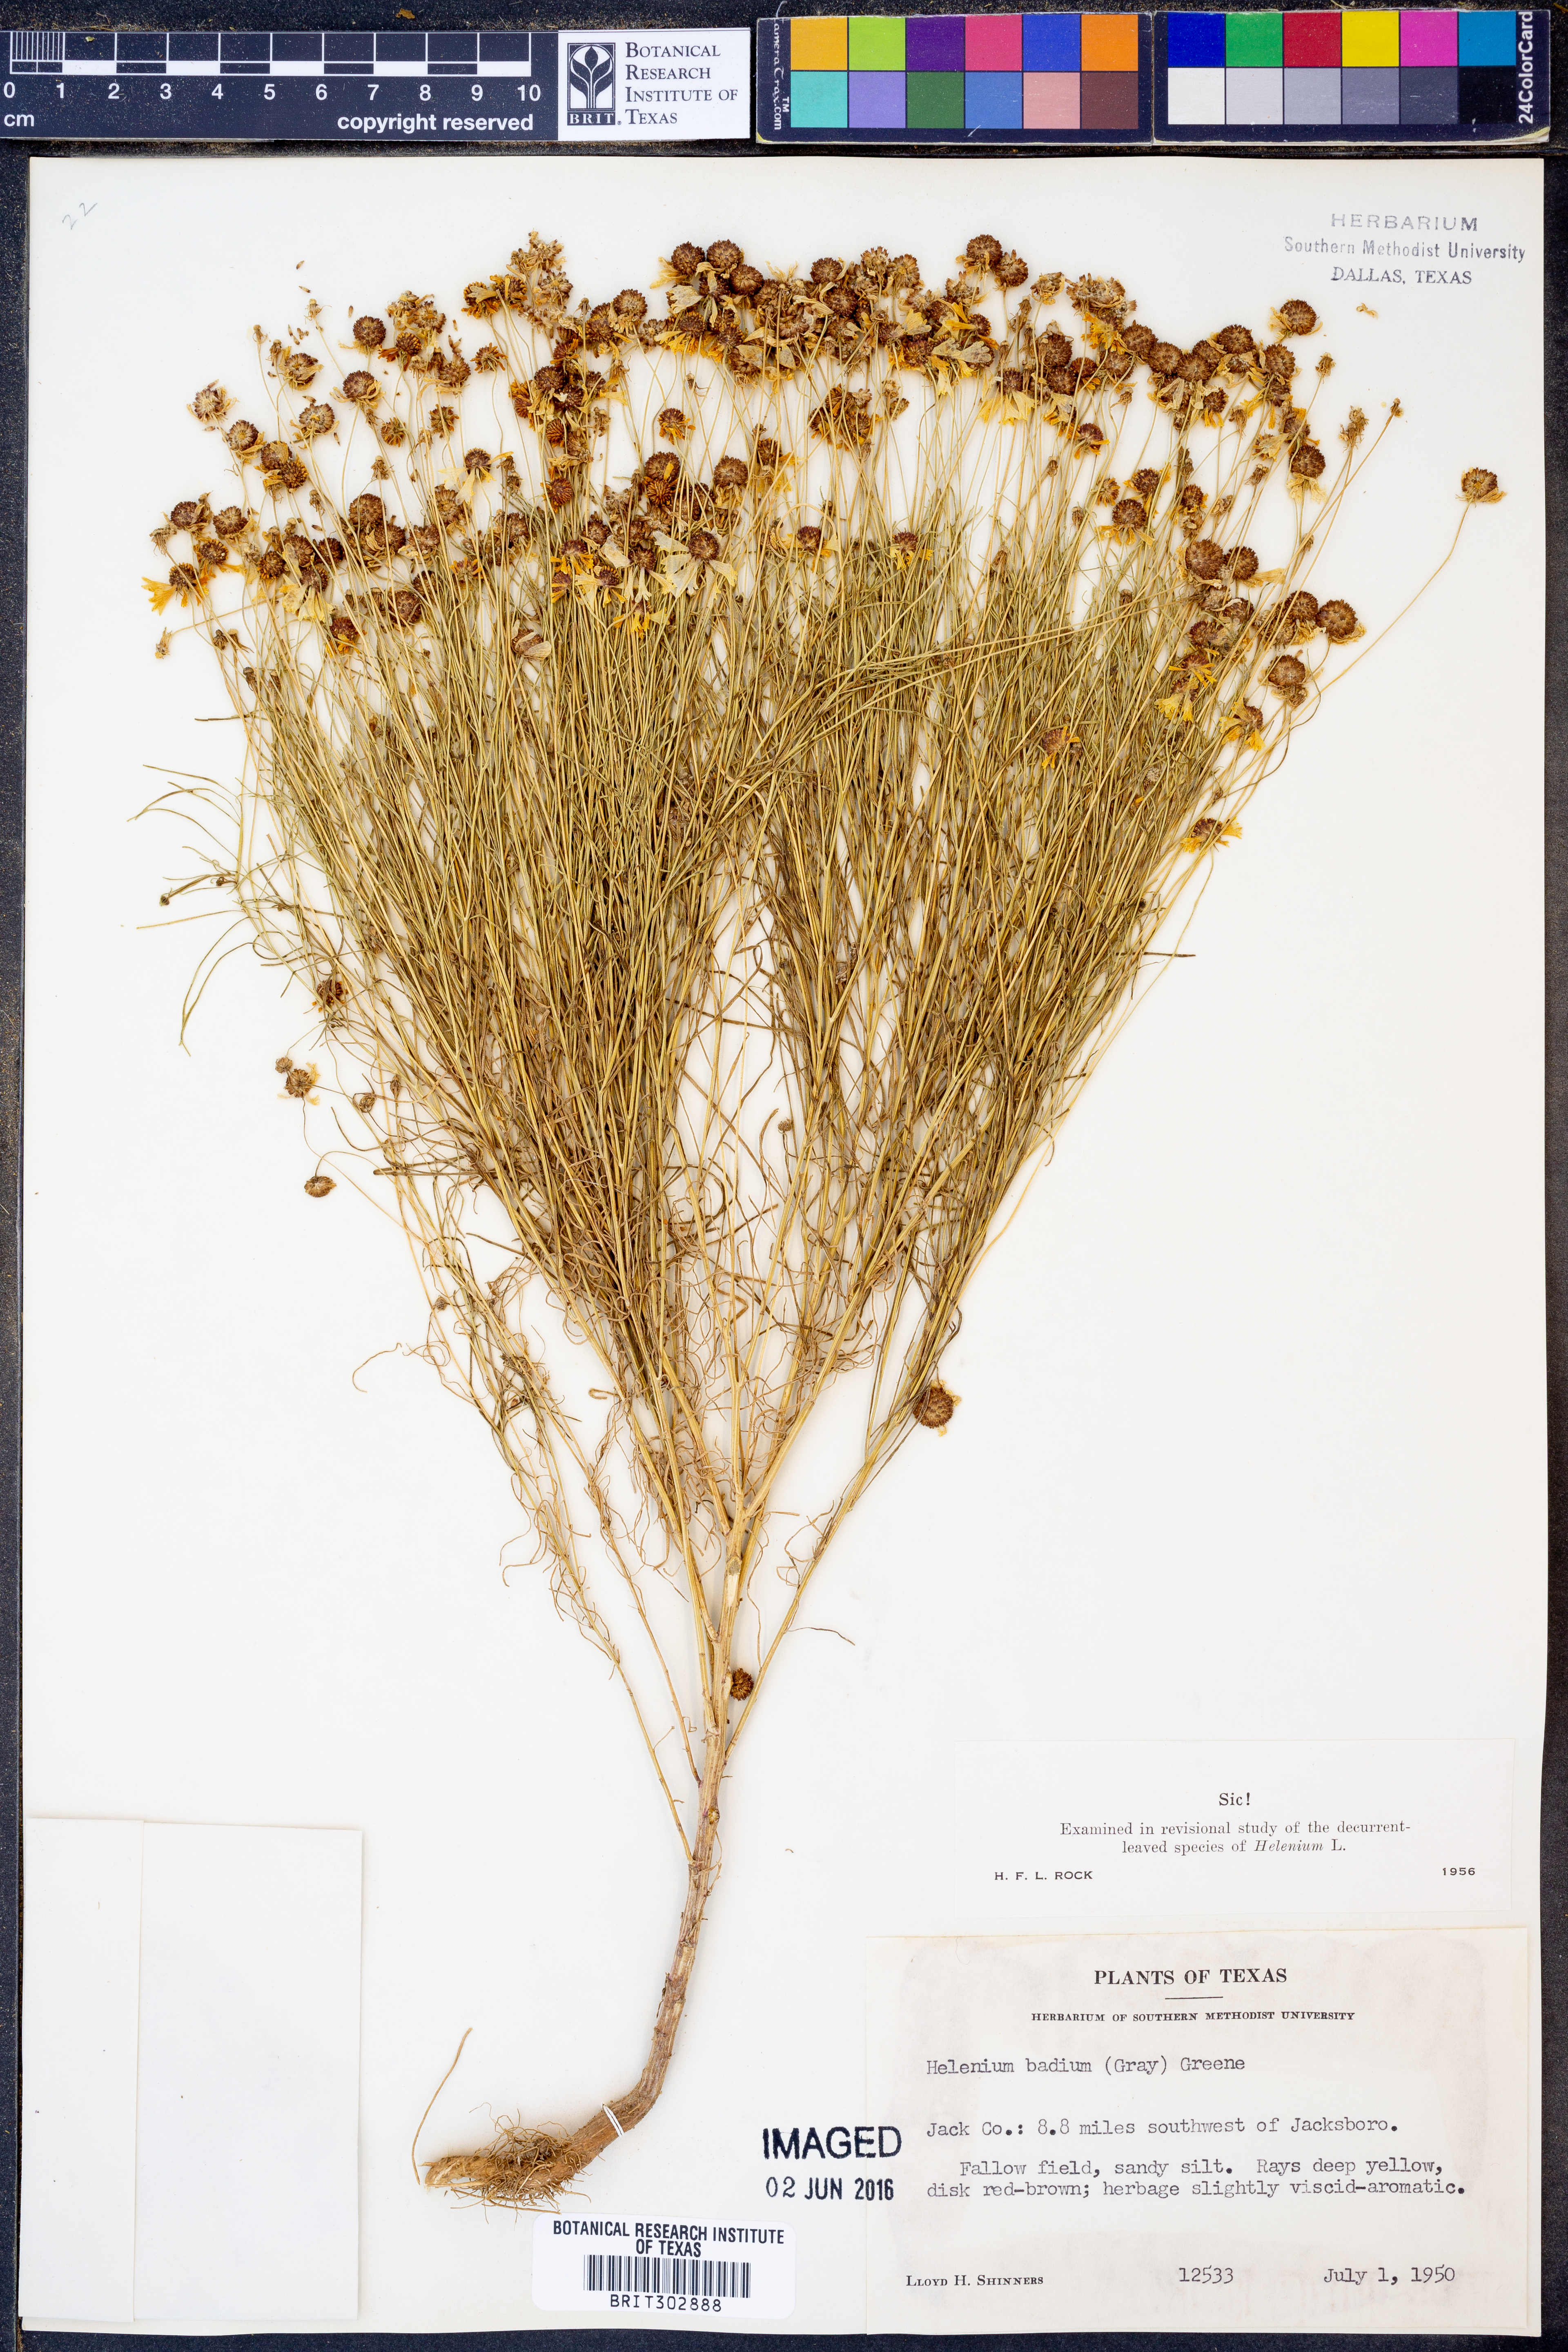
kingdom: Plantae
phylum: Tracheophyta
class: Magnoliopsida
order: Asterales
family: Asteraceae
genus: Helenium
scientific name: Helenium amarum
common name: Bitter sneezeweed
